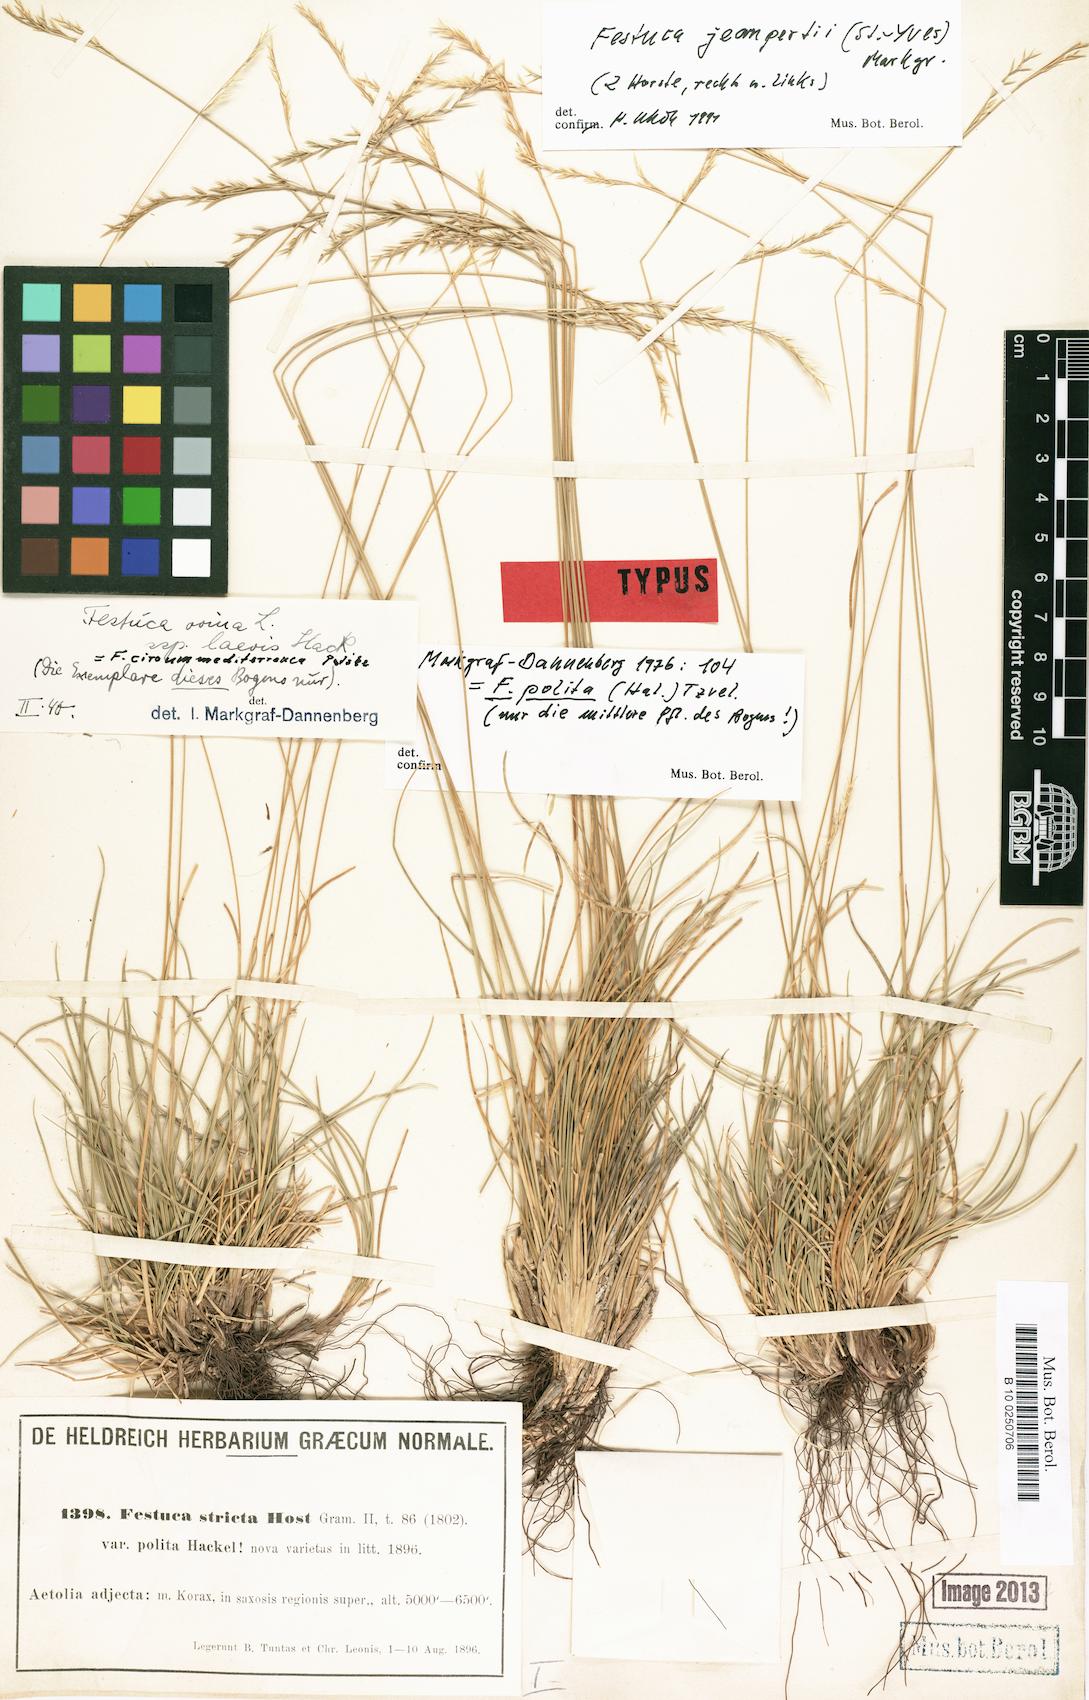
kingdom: Plantae
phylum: Tracheophyta
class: Liliopsida
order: Poales
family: Poaceae
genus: Festuca
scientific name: Festuca polita
